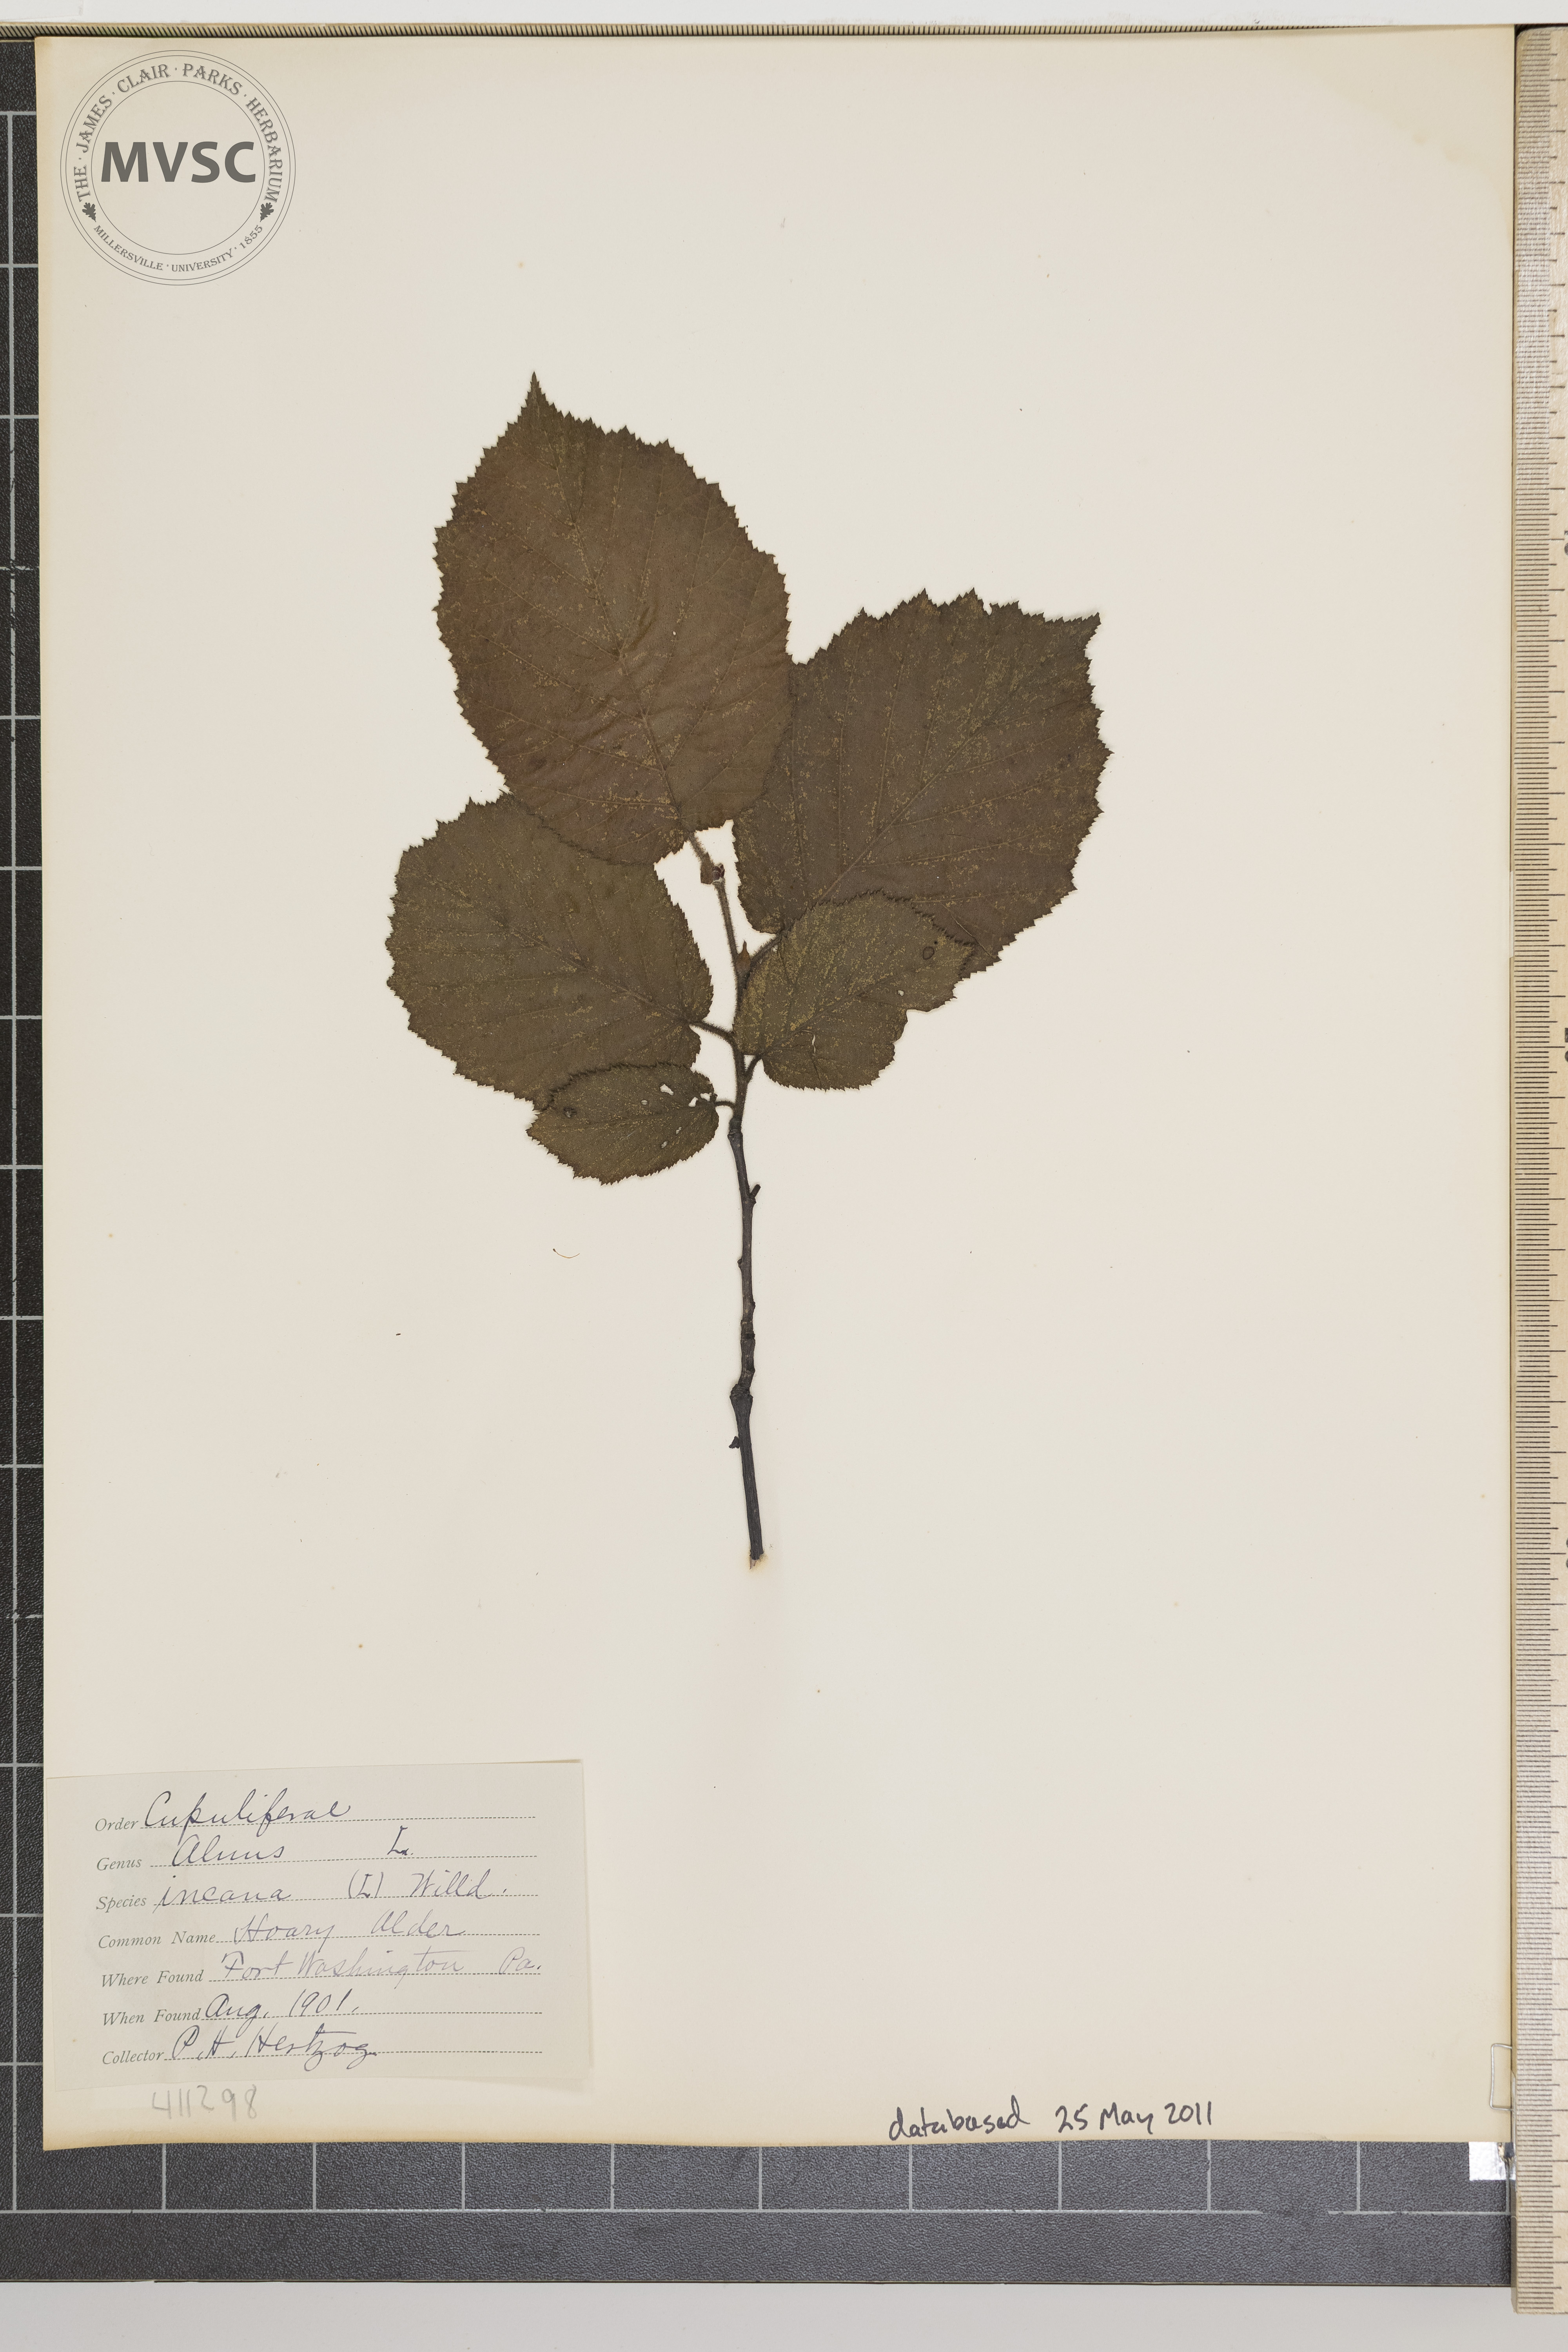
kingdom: Plantae
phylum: Tracheophyta
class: Magnoliopsida
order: Fagales
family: Betulaceae
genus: Alnus
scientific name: Alnus incana
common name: Grey alder
